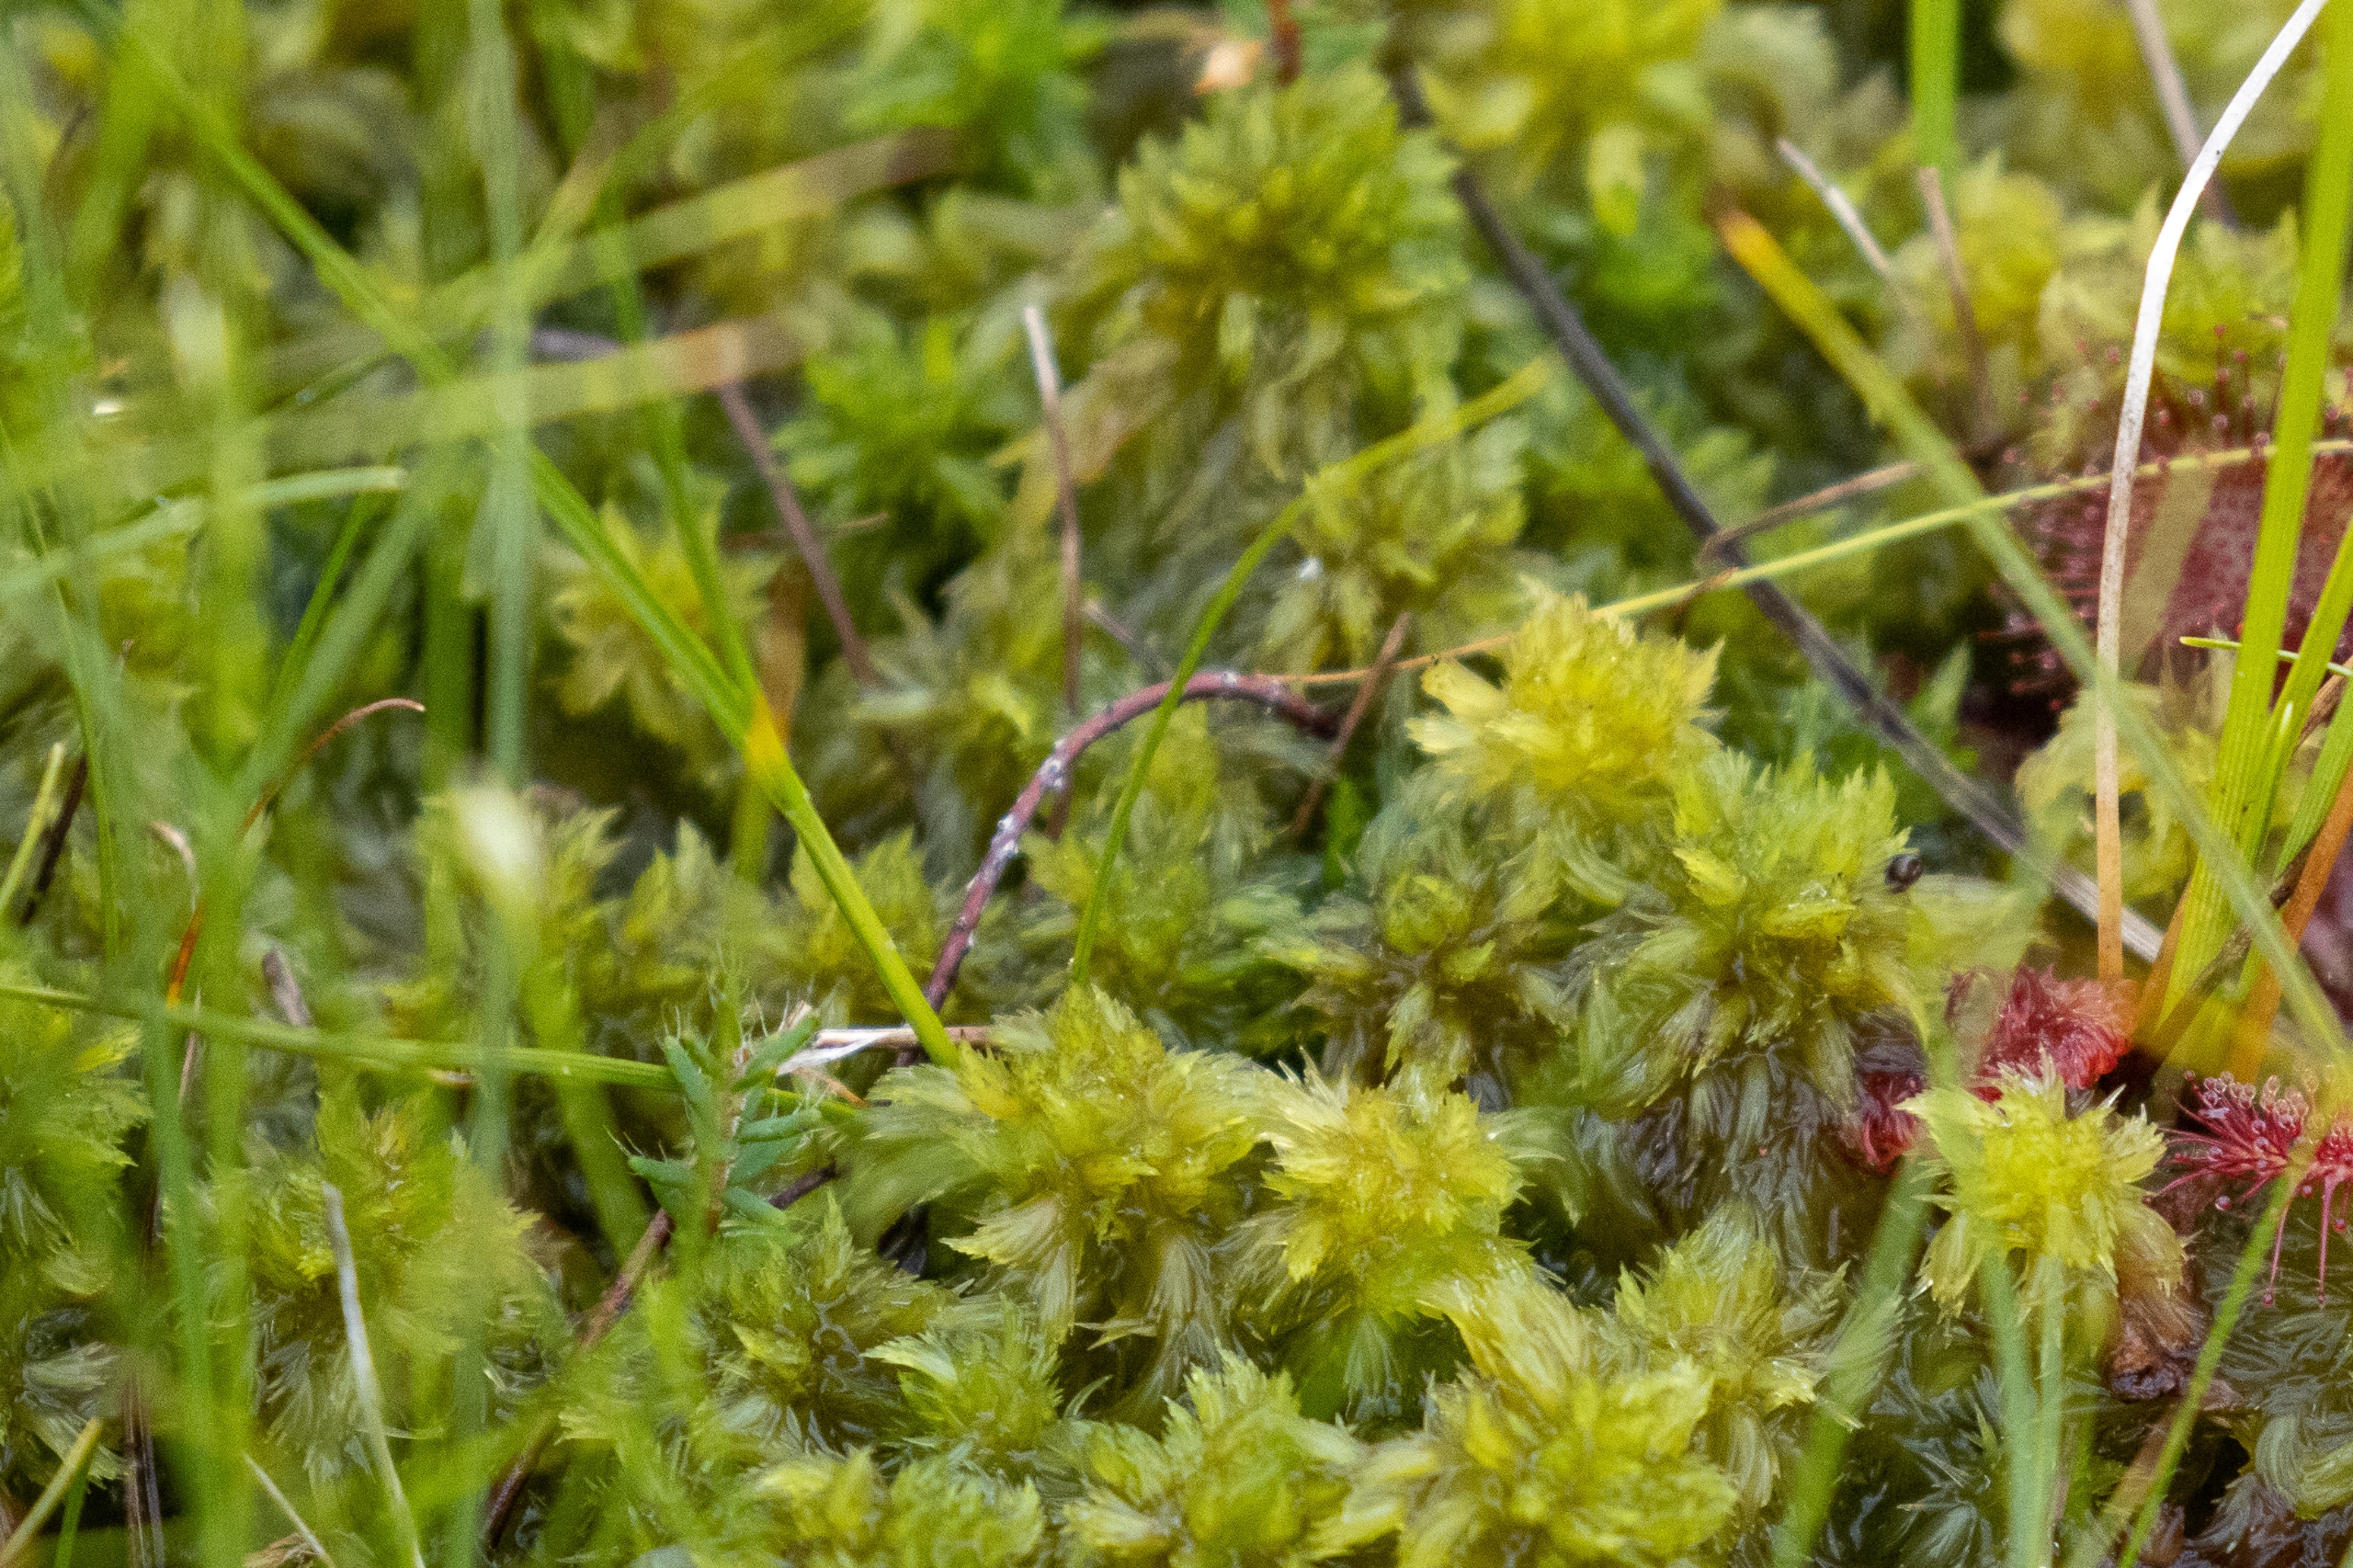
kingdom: Plantae
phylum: Bryophyta
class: Sphagnopsida
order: Sphagnales
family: Sphagnaceae
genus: Sphagnum
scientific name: Sphagnum cuspidatum
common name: Pjusket tørvemos
